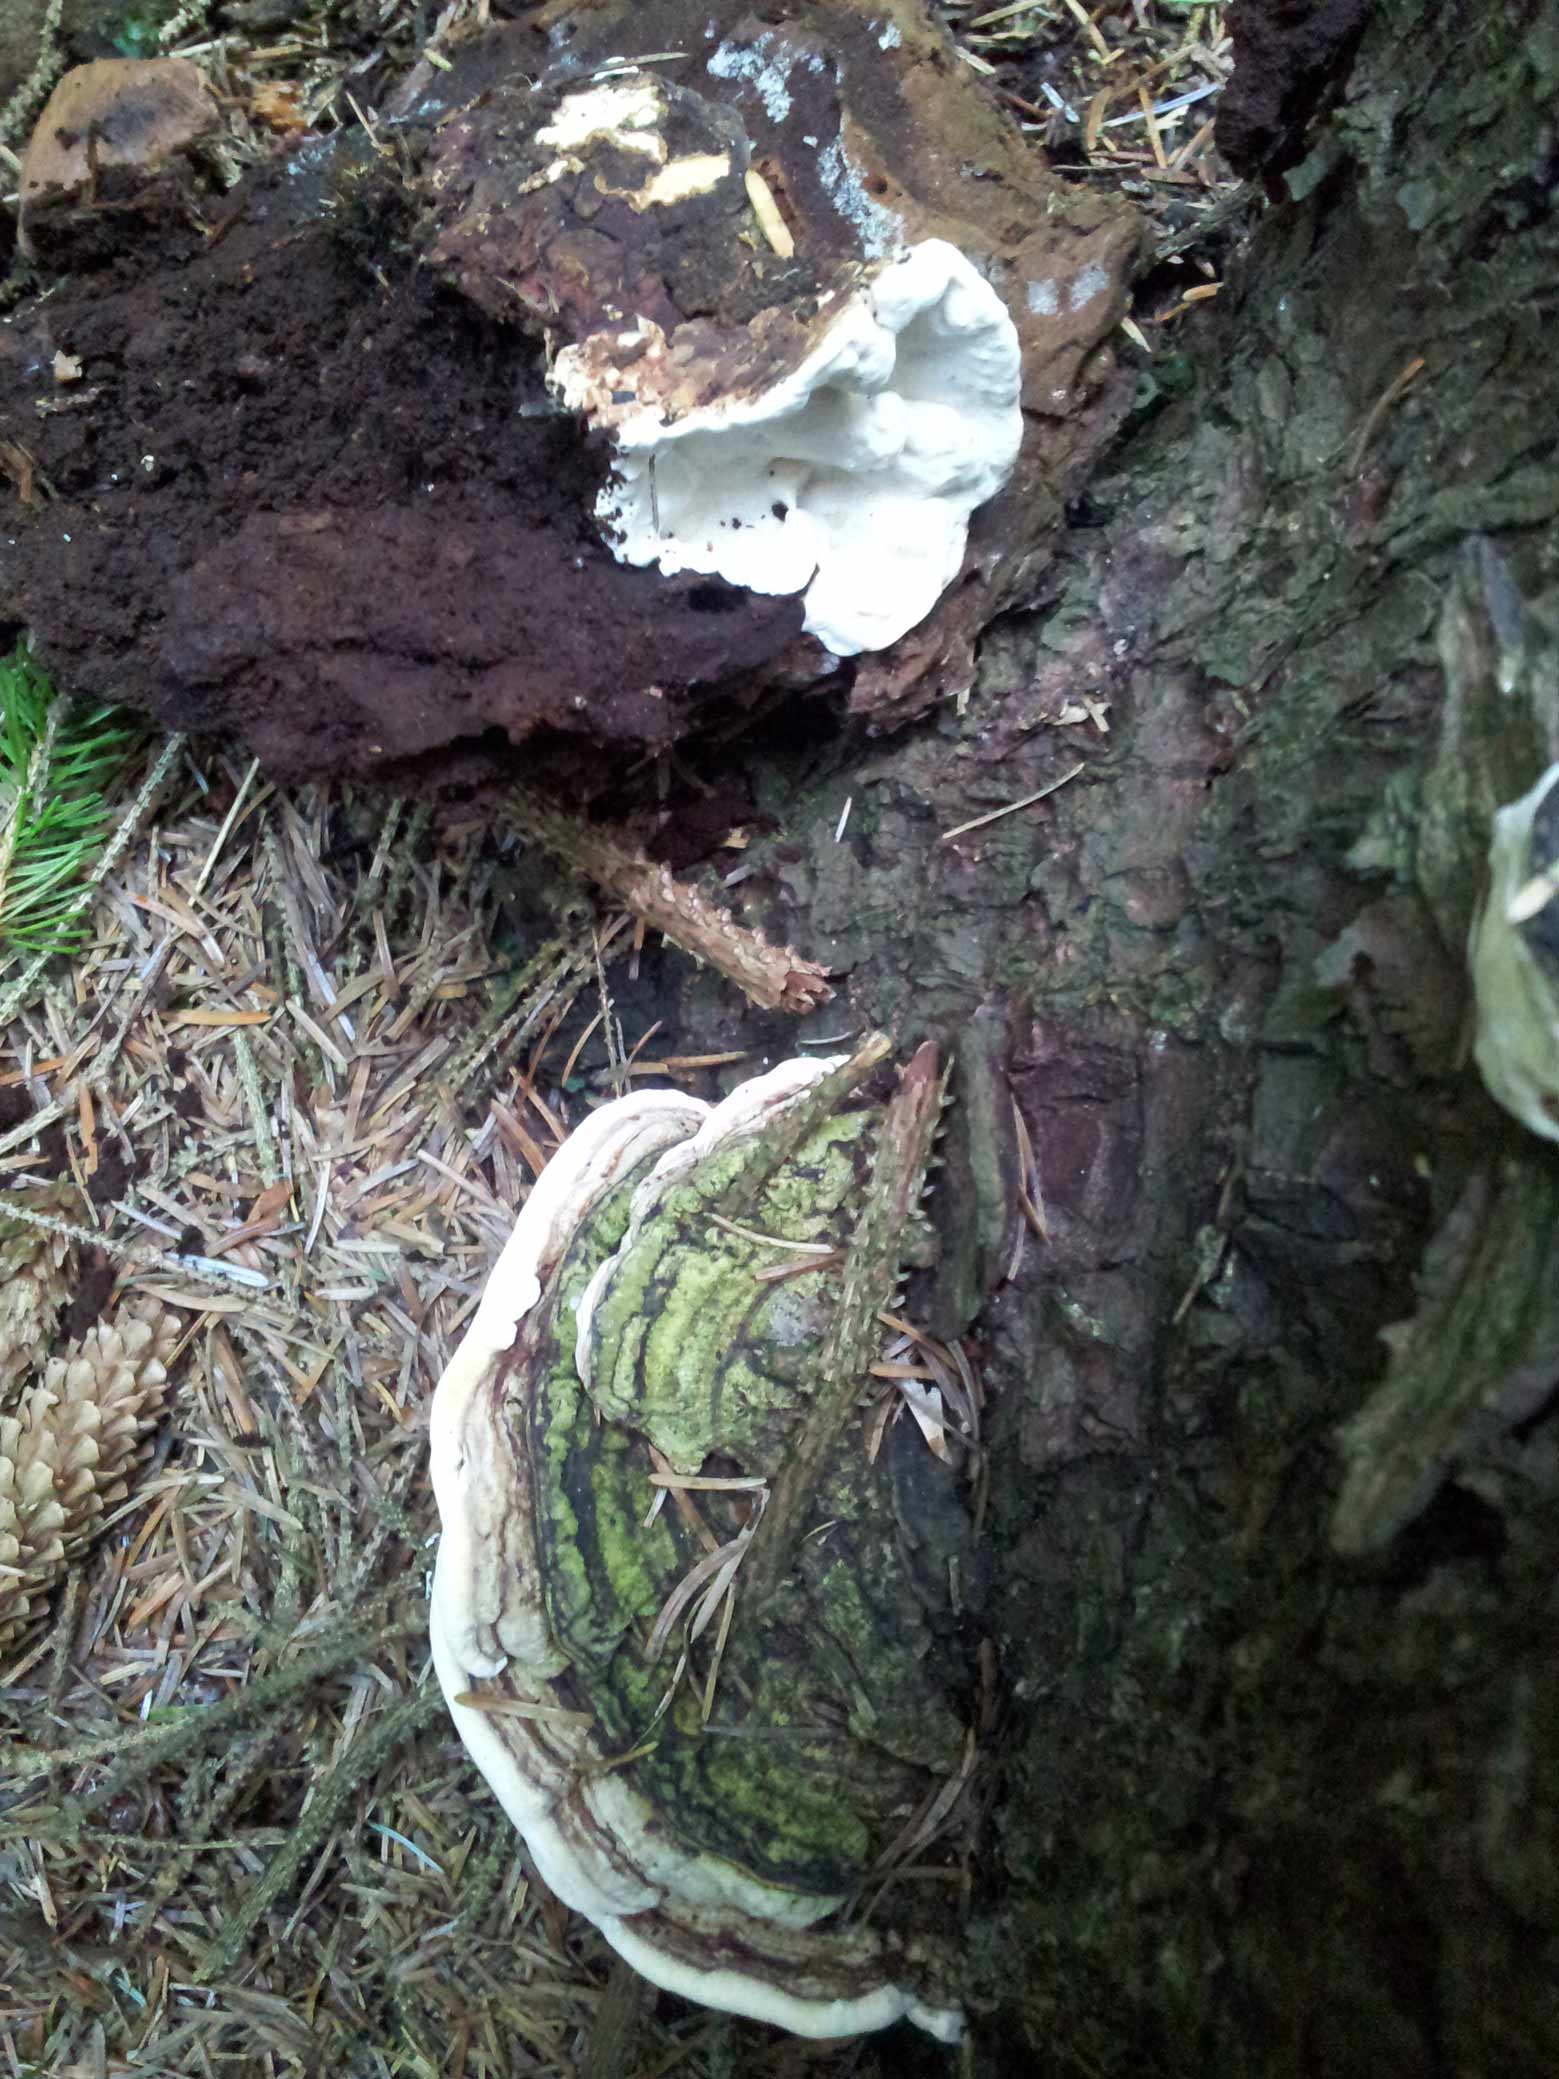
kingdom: Fungi
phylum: Basidiomycota
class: Agaricomycetes
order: Russulales
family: Bondarzewiaceae
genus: Heterobasidion
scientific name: Heterobasidion annosum
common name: almindelig rodfordærver
